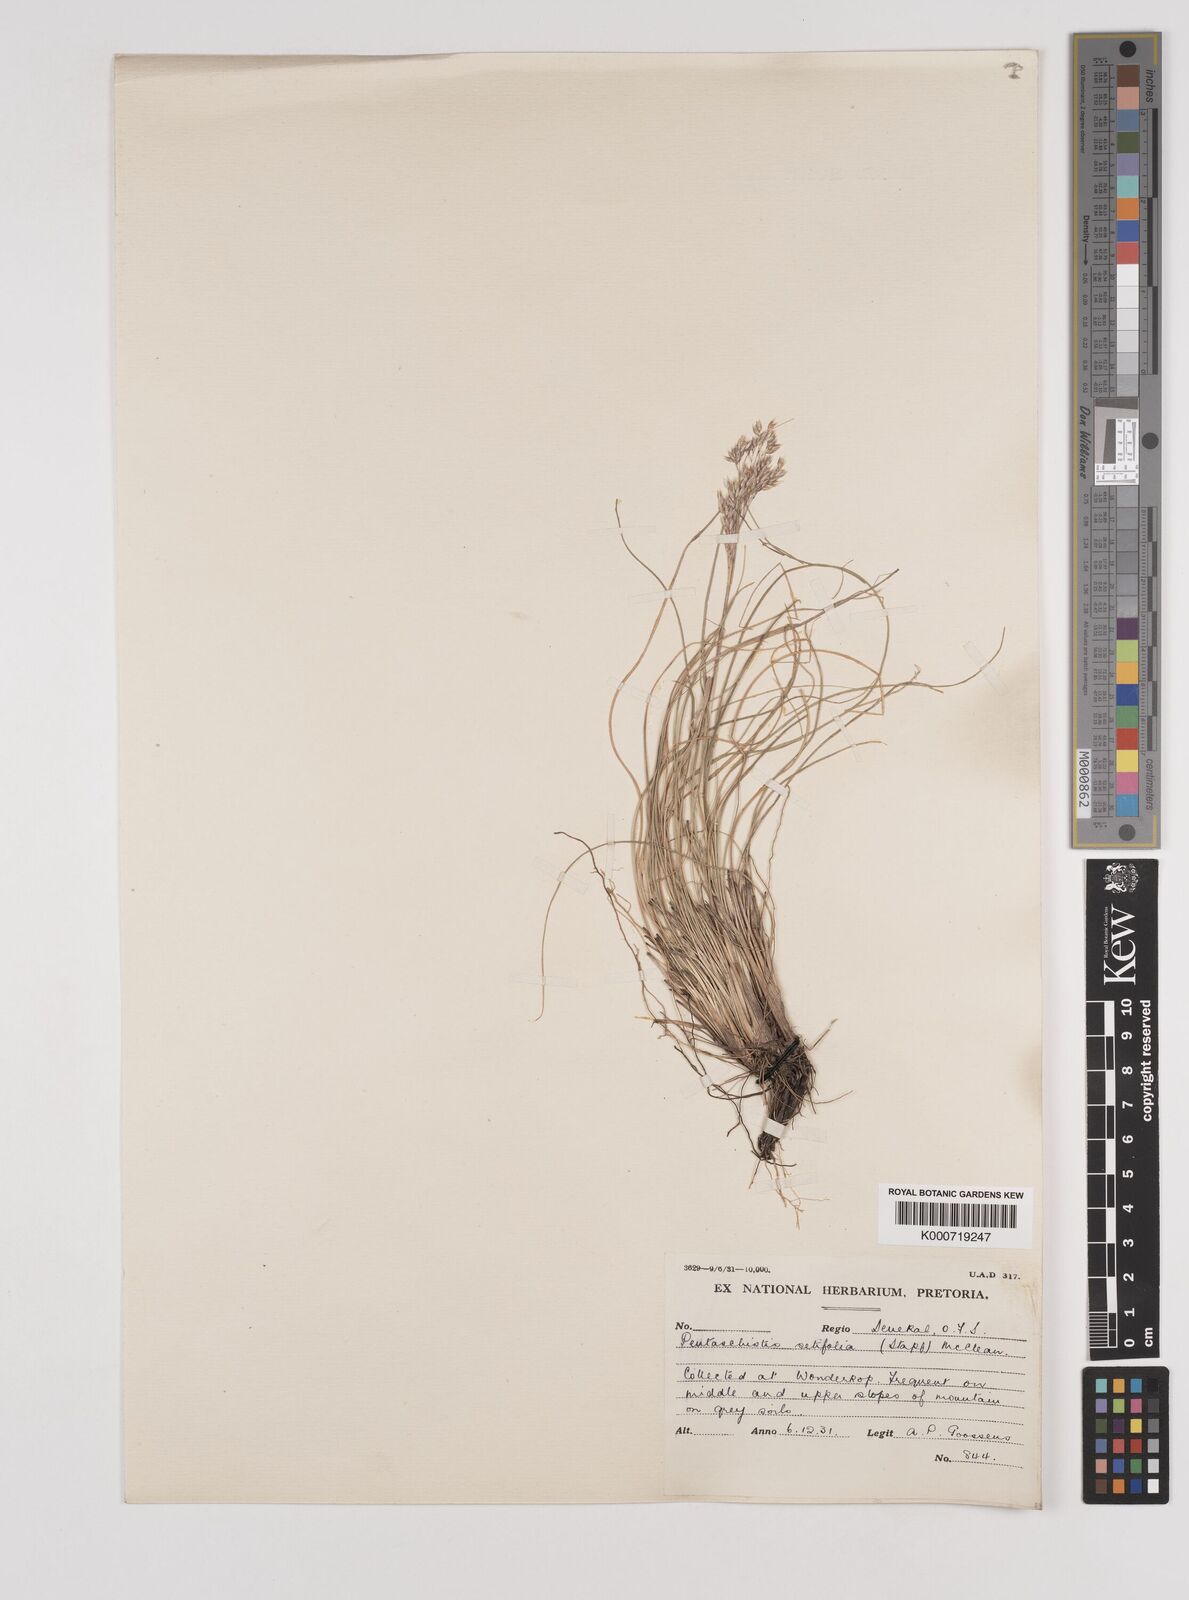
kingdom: Plantae
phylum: Tracheophyta
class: Liliopsida
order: Poales
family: Poaceae
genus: Pentameris
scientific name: Pentameris setifolia
